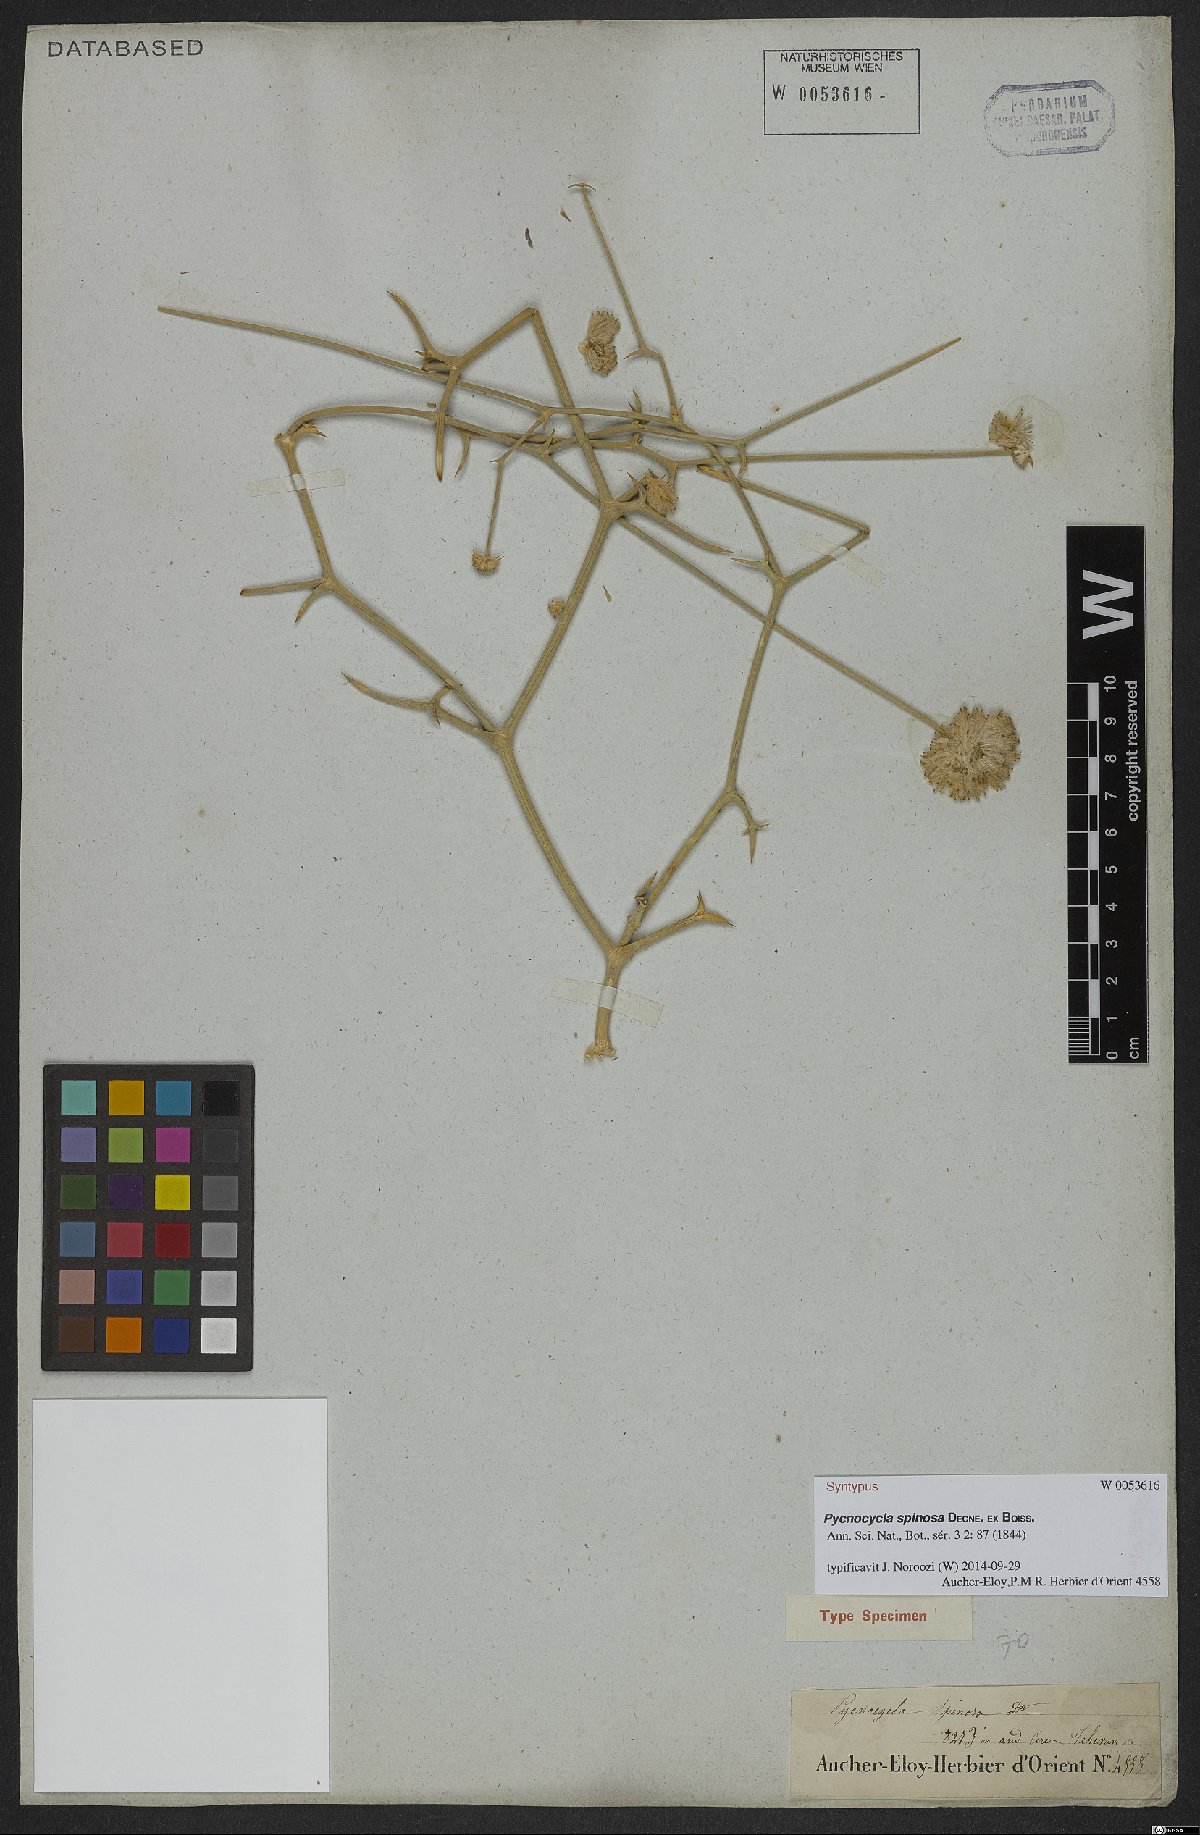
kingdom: Plantae
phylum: Tracheophyta
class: Magnoliopsida
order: Apiales
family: Apiaceae
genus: Pycnocycla
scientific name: Pycnocycla spinosa
